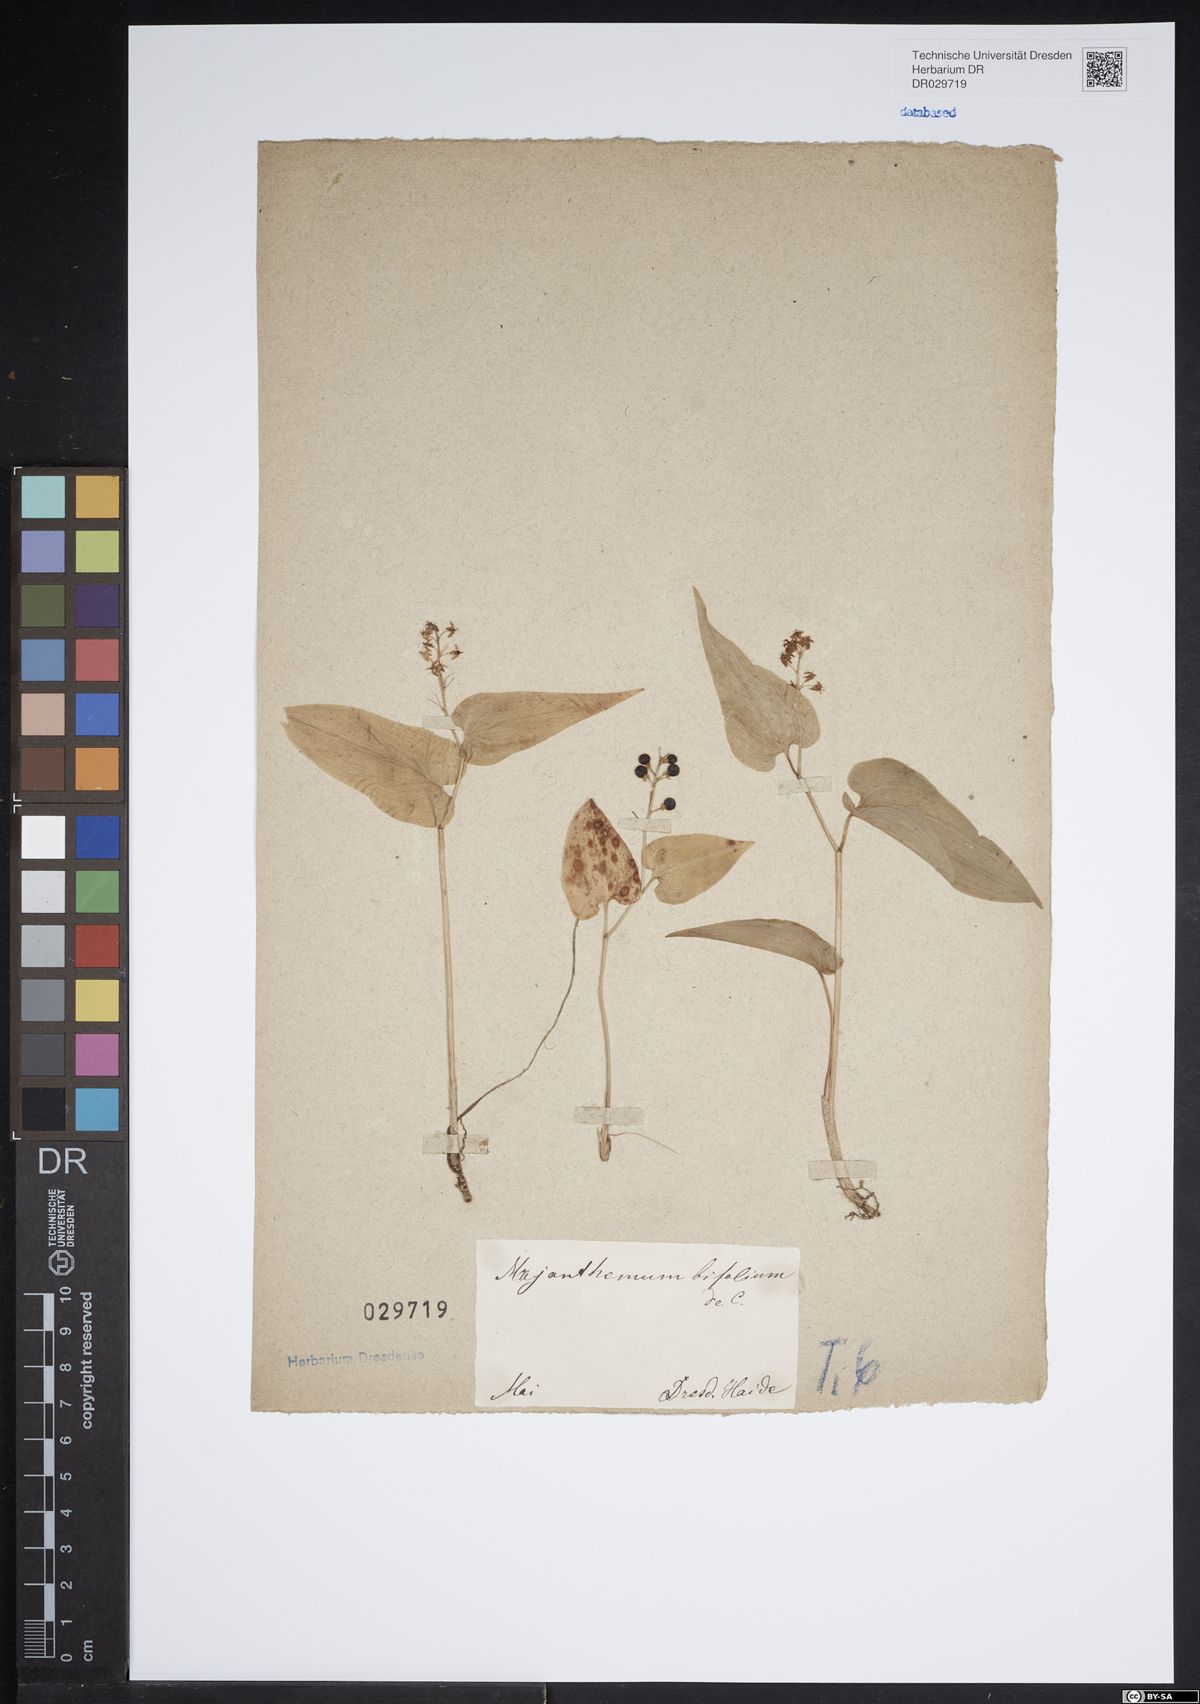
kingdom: Plantae
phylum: Tracheophyta
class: Liliopsida
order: Asparagales
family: Asparagaceae
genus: Maianthemum
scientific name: Maianthemum bifolium
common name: May lily
